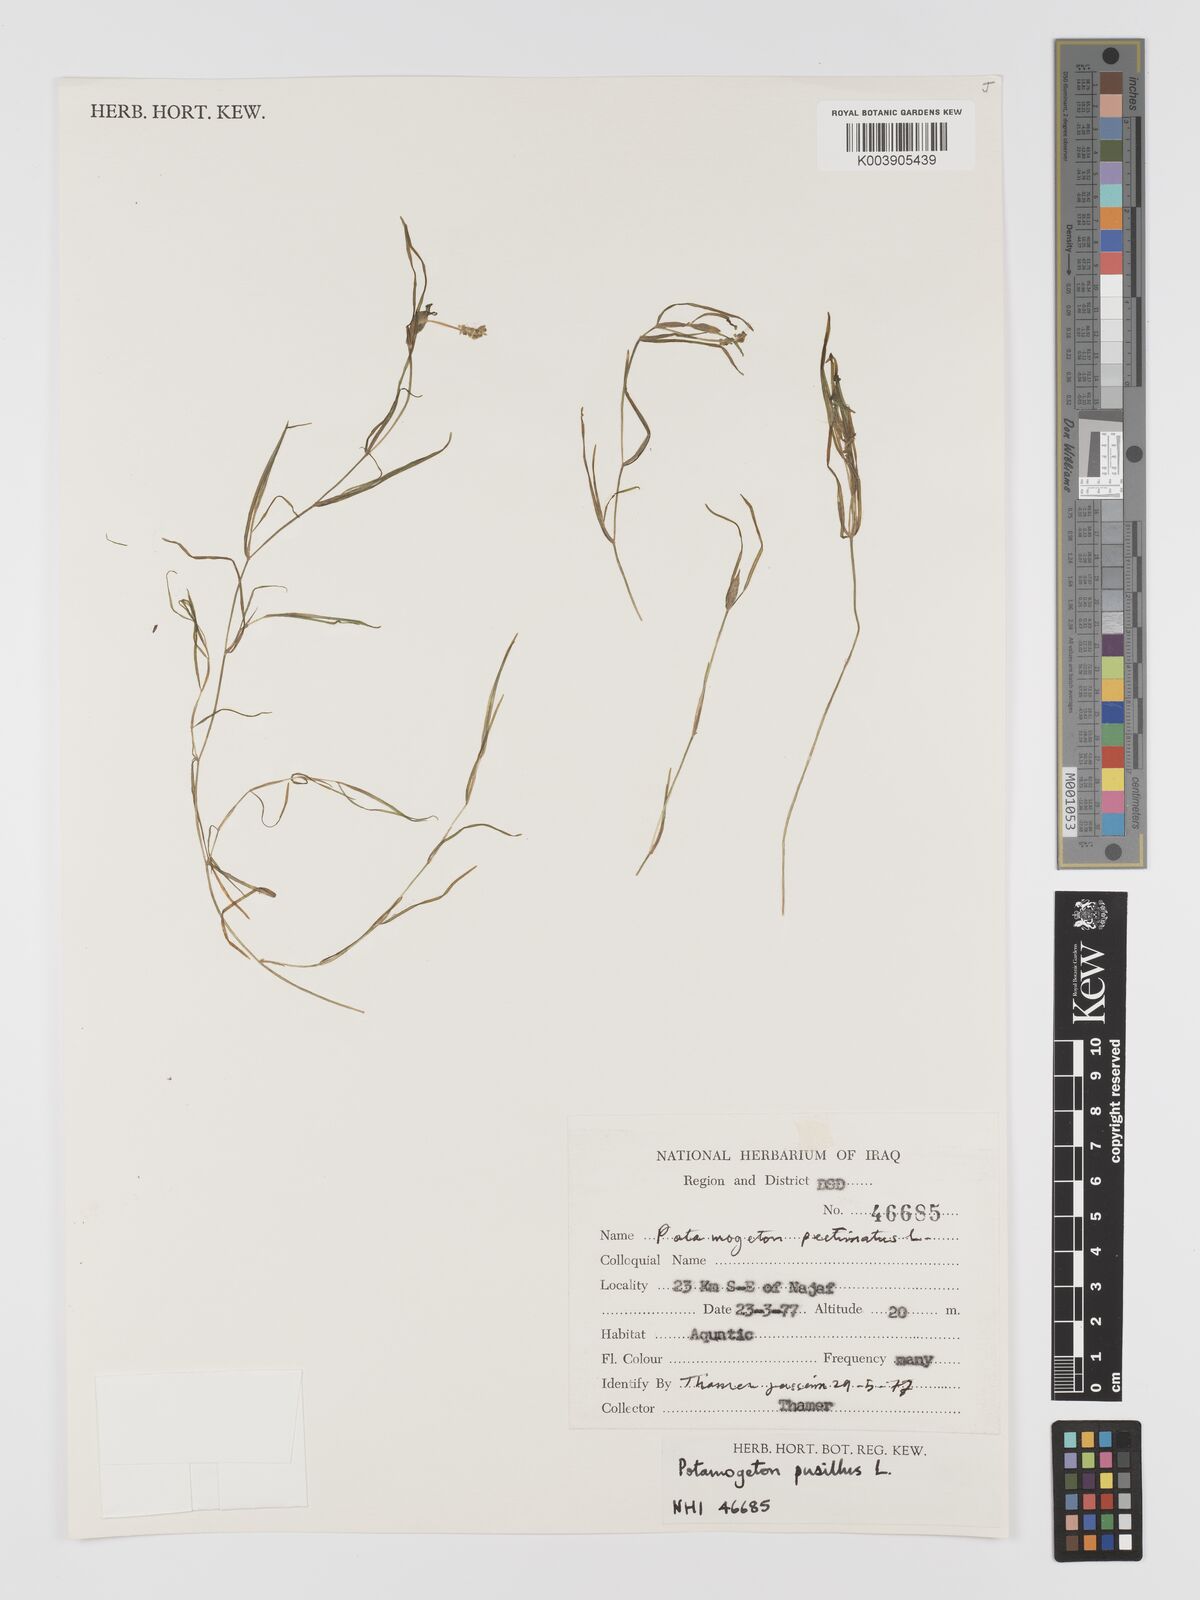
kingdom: Plantae
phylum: Tracheophyta
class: Liliopsida
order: Alismatales
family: Potamogetonaceae
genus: Potamogeton
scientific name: Potamogeton pusillus
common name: Lesser pondweed
